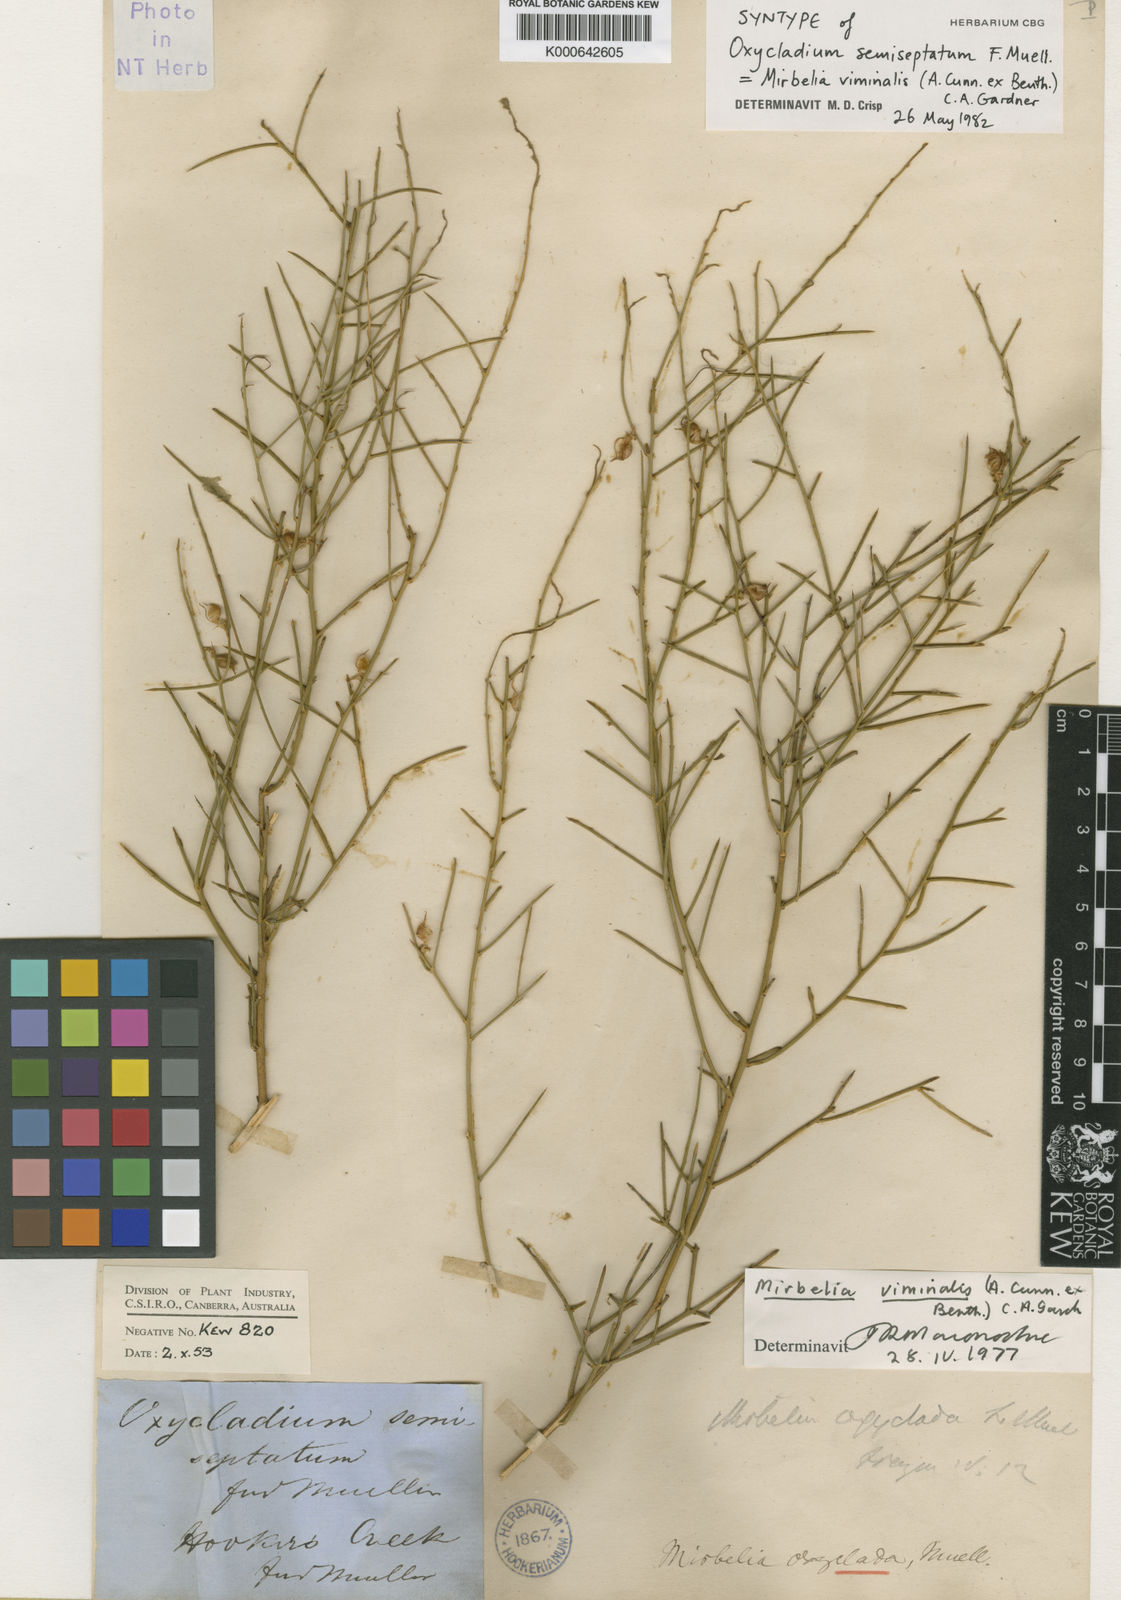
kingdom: Plantae
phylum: Tracheophyta
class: Magnoliopsida
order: Fabales
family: Fabaceae
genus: Mirbelia
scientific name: Mirbelia viminalis
